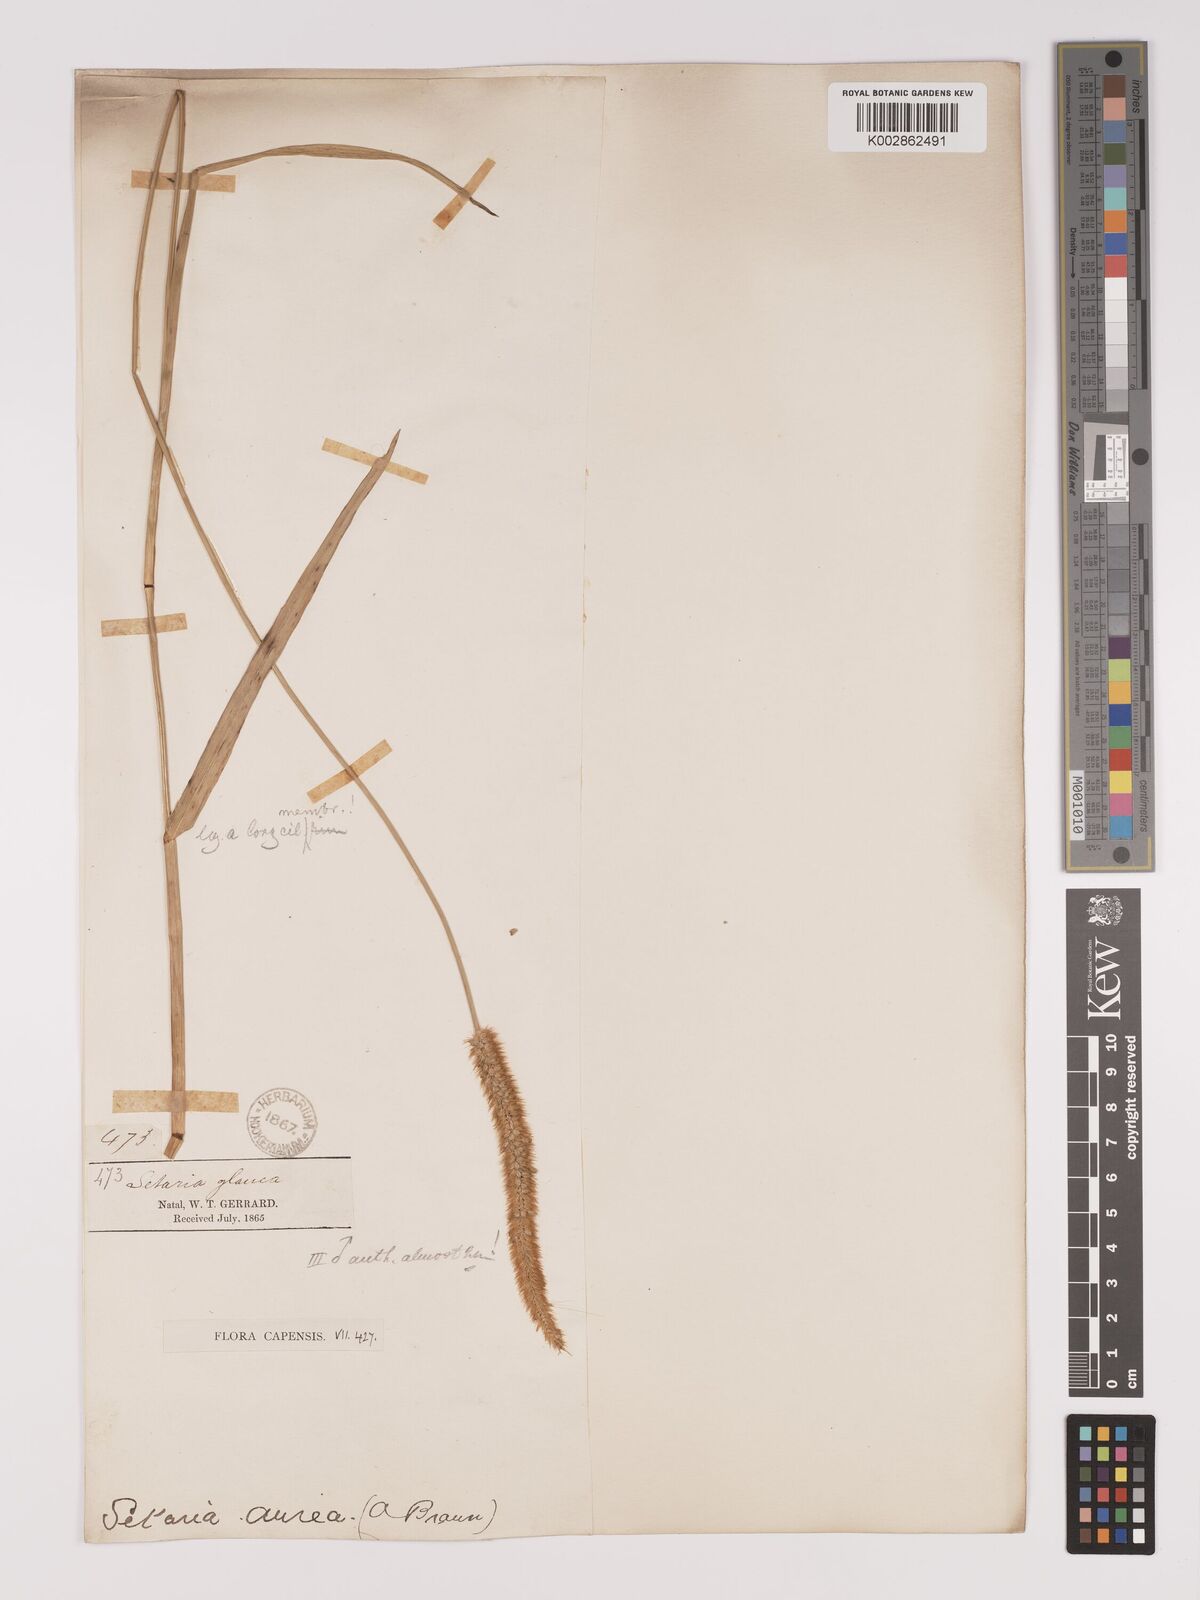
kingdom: Plantae
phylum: Tracheophyta
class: Liliopsida
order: Poales
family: Poaceae
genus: Setaria
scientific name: Setaria sphacelata
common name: African bristlegrass
